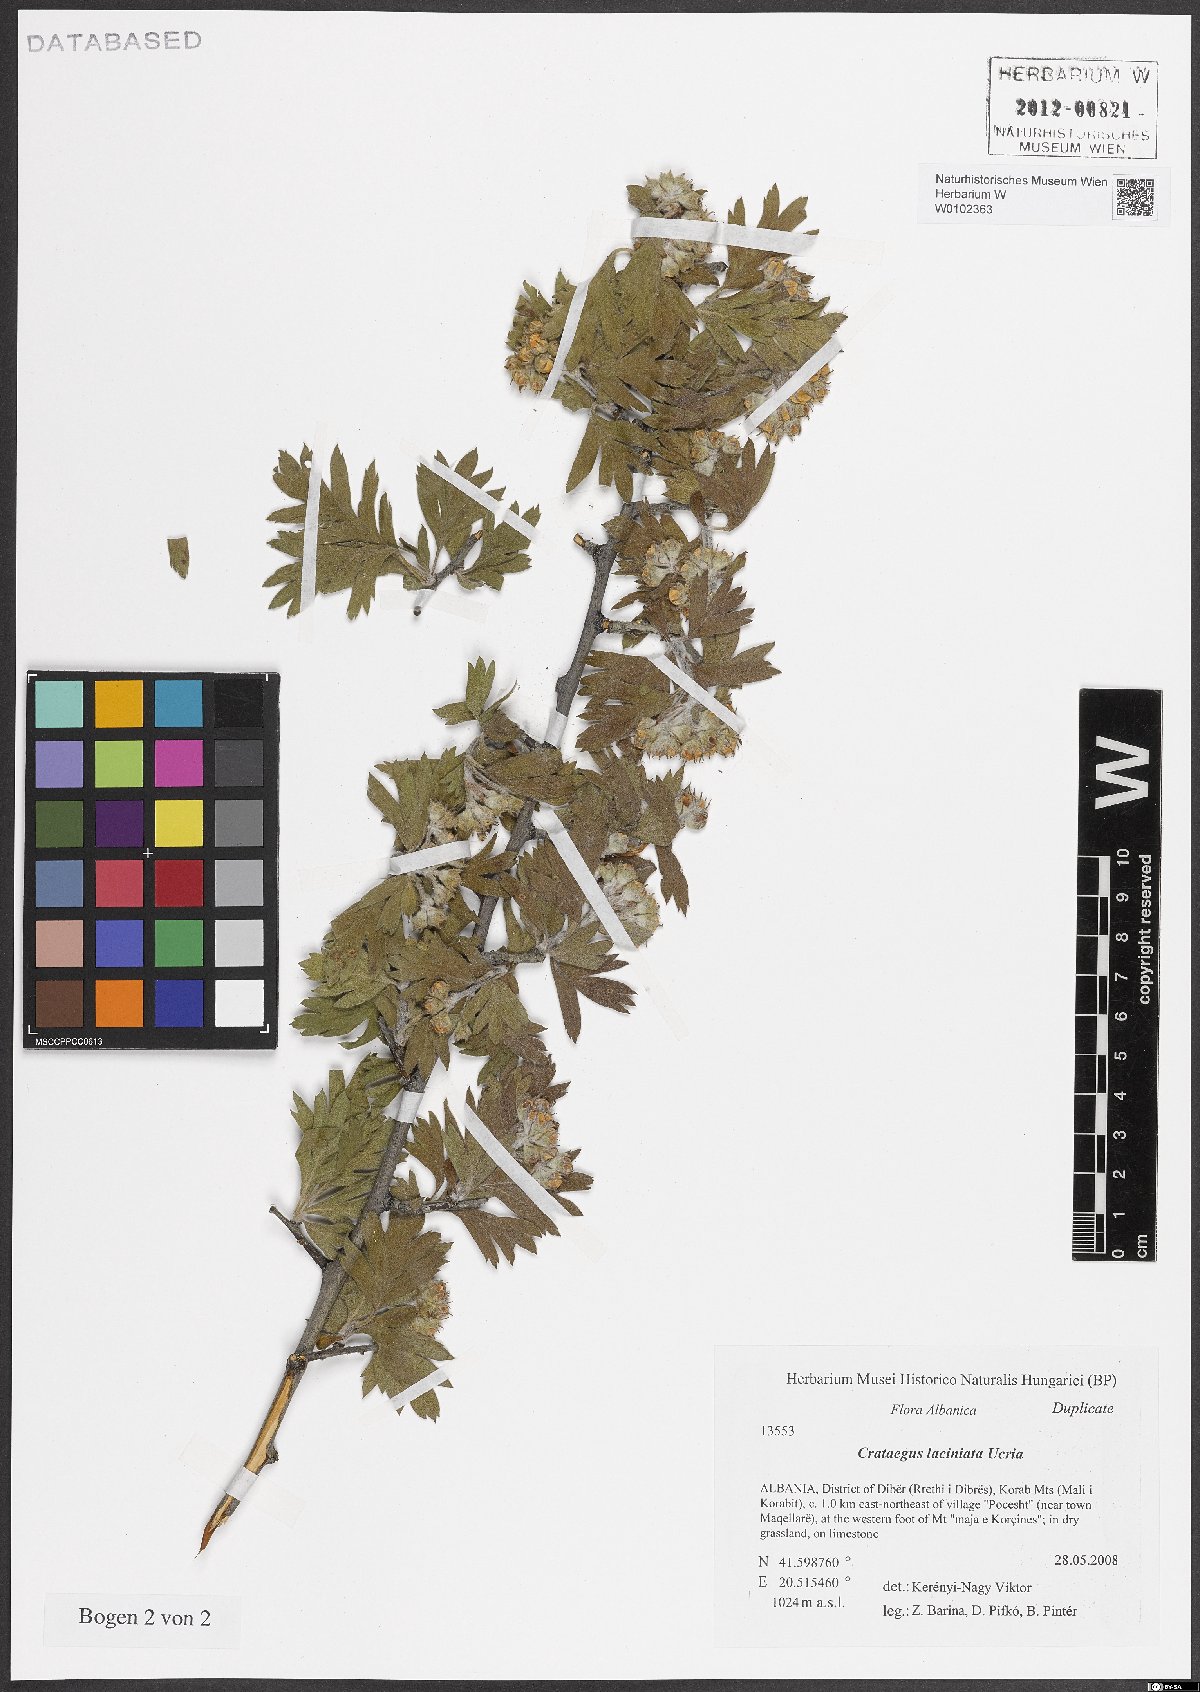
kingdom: Plantae
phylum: Tracheophyta
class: Magnoliopsida
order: Rosales
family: Rosaceae
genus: Crataegus
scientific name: Crataegus laciniata
